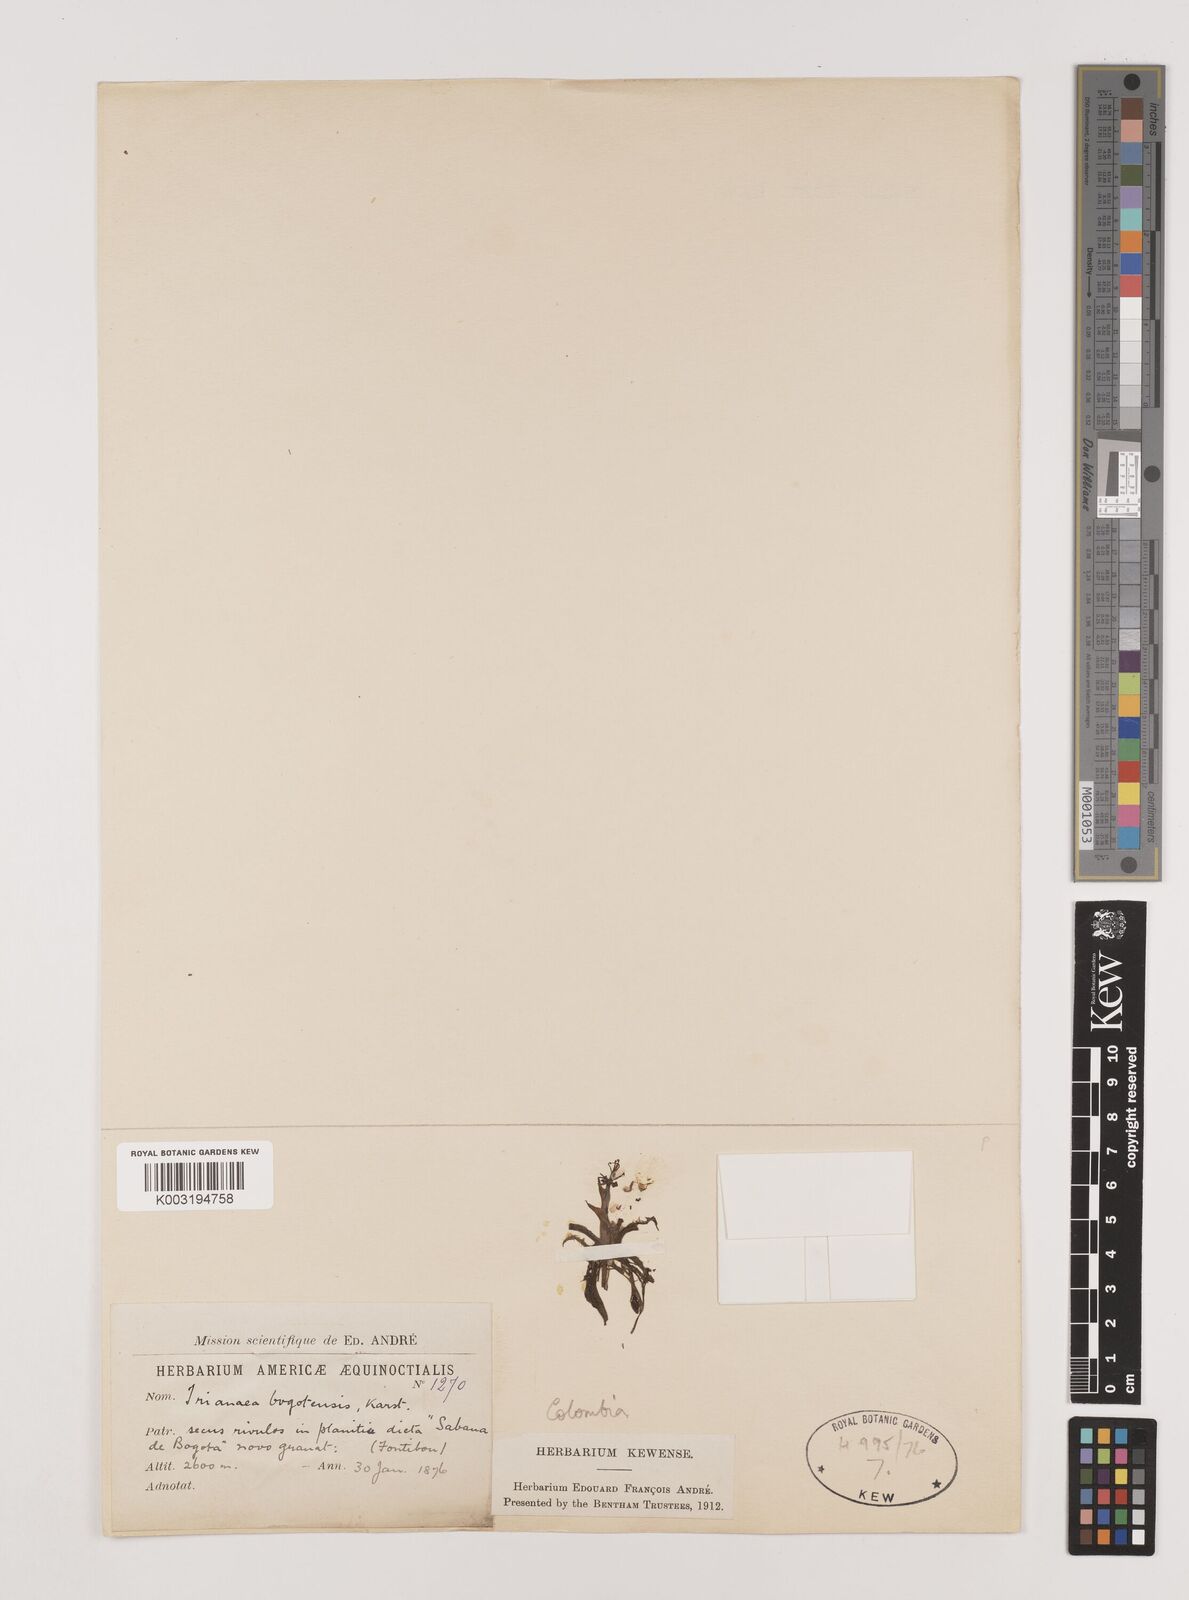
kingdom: Plantae
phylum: Tracheophyta
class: Liliopsida
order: Alismatales
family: Hydrocharitaceae
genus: Hydrocharis
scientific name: Hydrocharis laevigata
